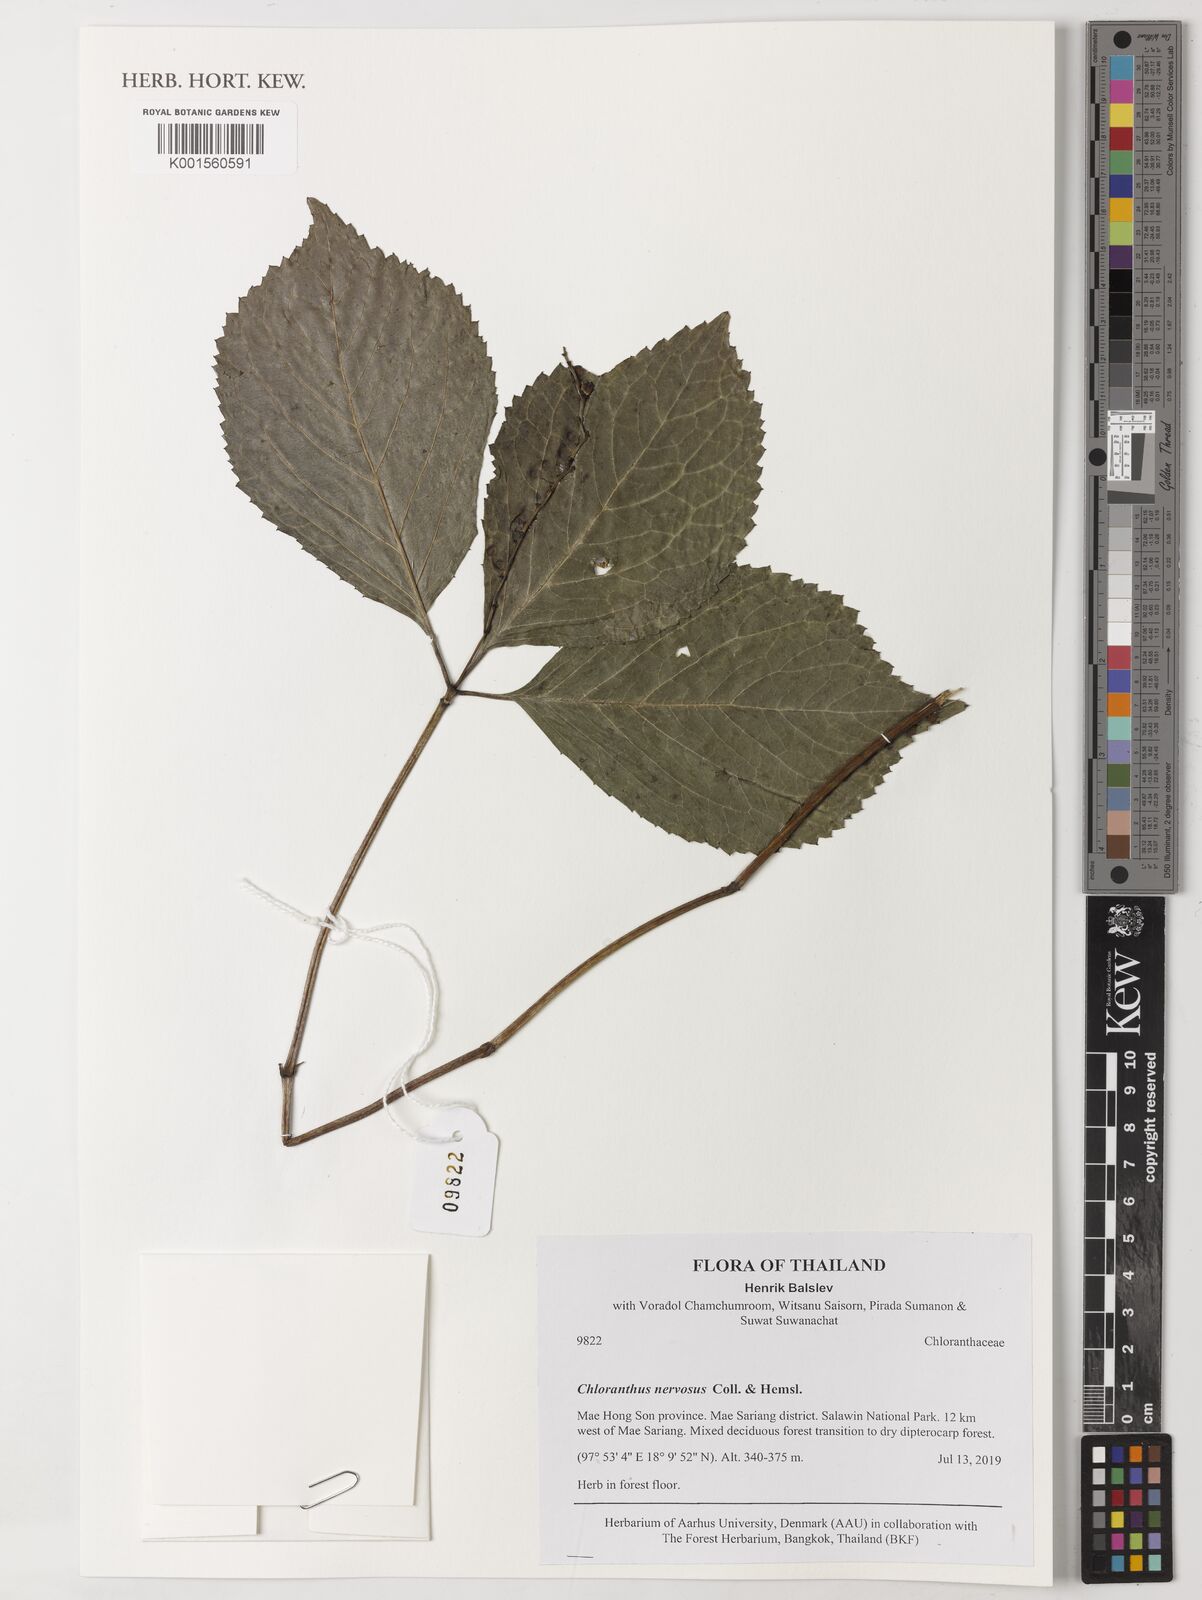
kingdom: Plantae
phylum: Tracheophyta
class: Magnoliopsida
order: Chloranthales
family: Chloranthaceae
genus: Chloranthus
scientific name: Chloranthus nervosus
